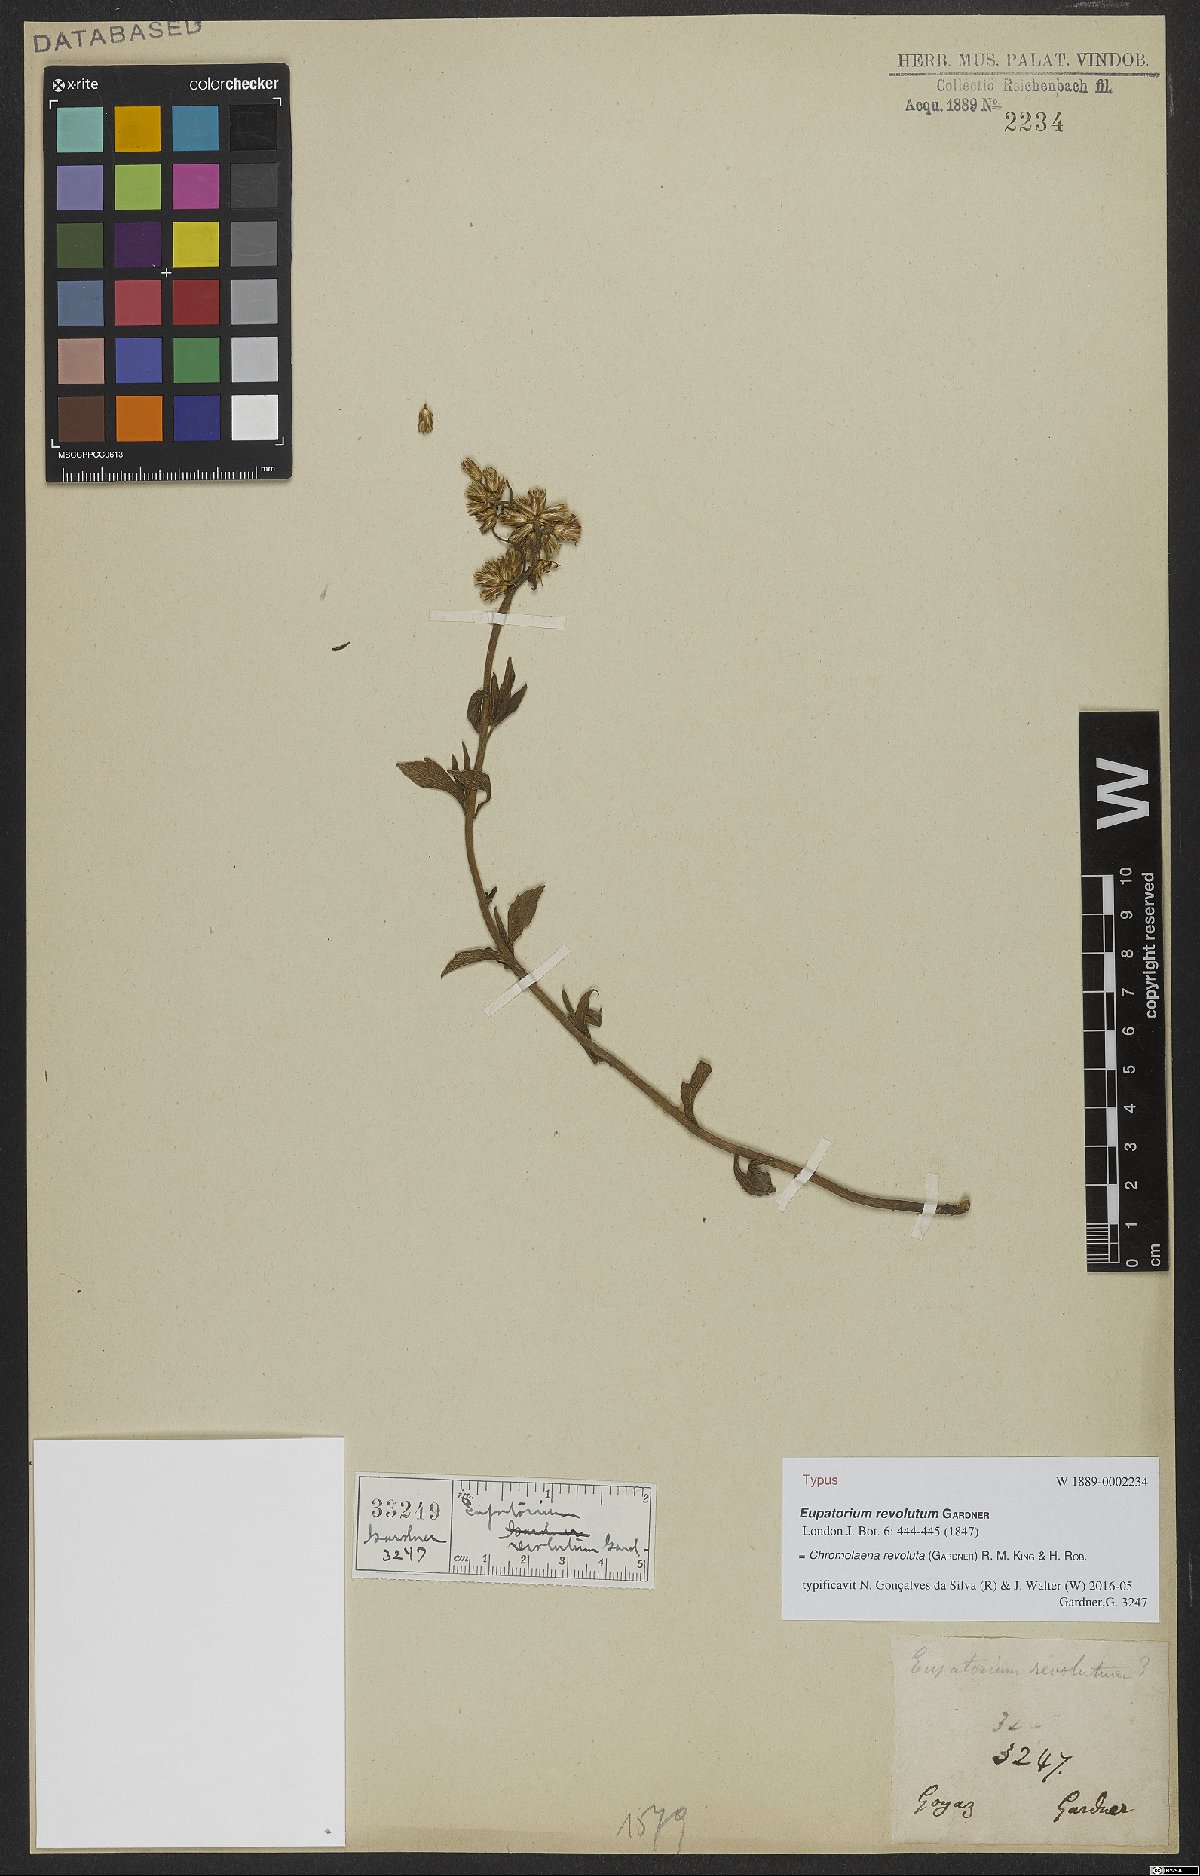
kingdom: Plantae
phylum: Tracheophyta
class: Magnoliopsida
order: Asterales
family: Asteraceae
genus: Chromolaena
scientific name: Chromolaena revoluta
